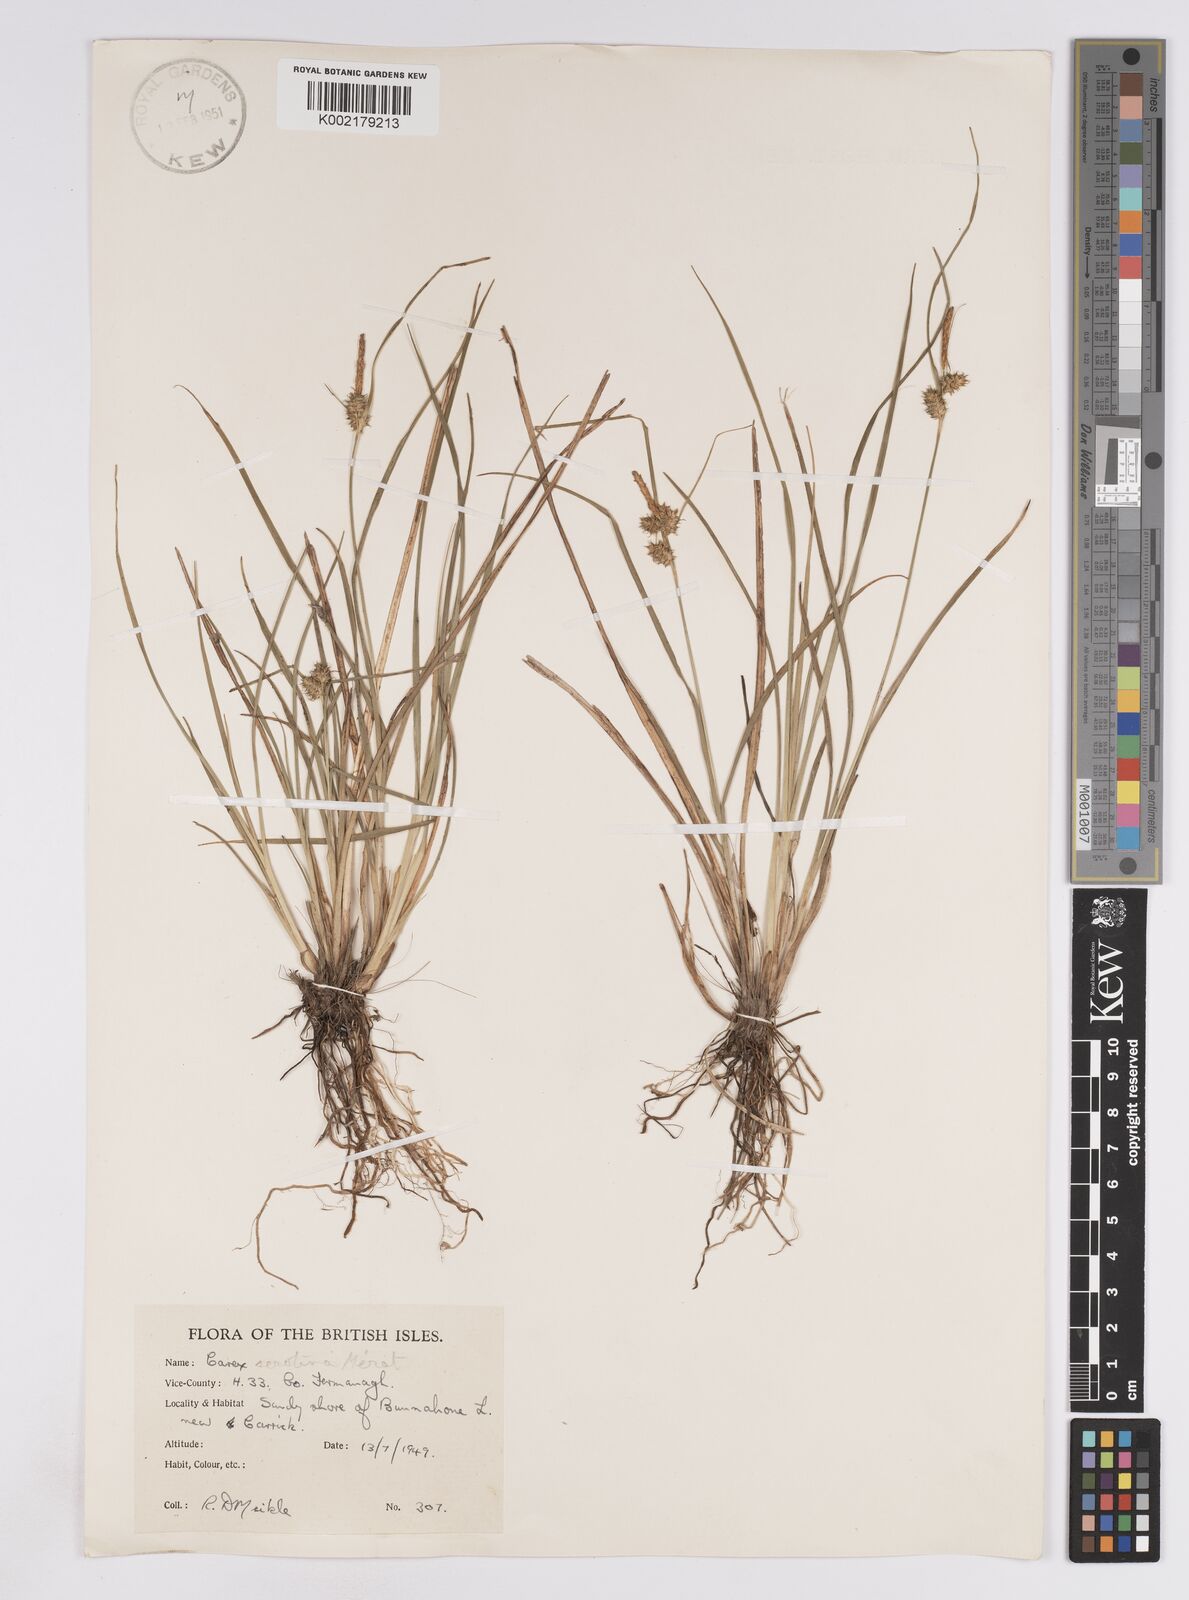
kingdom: Plantae
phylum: Tracheophyta
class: Liliopsida
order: Poales
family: Cyperaceae
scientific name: Cyperaceae
